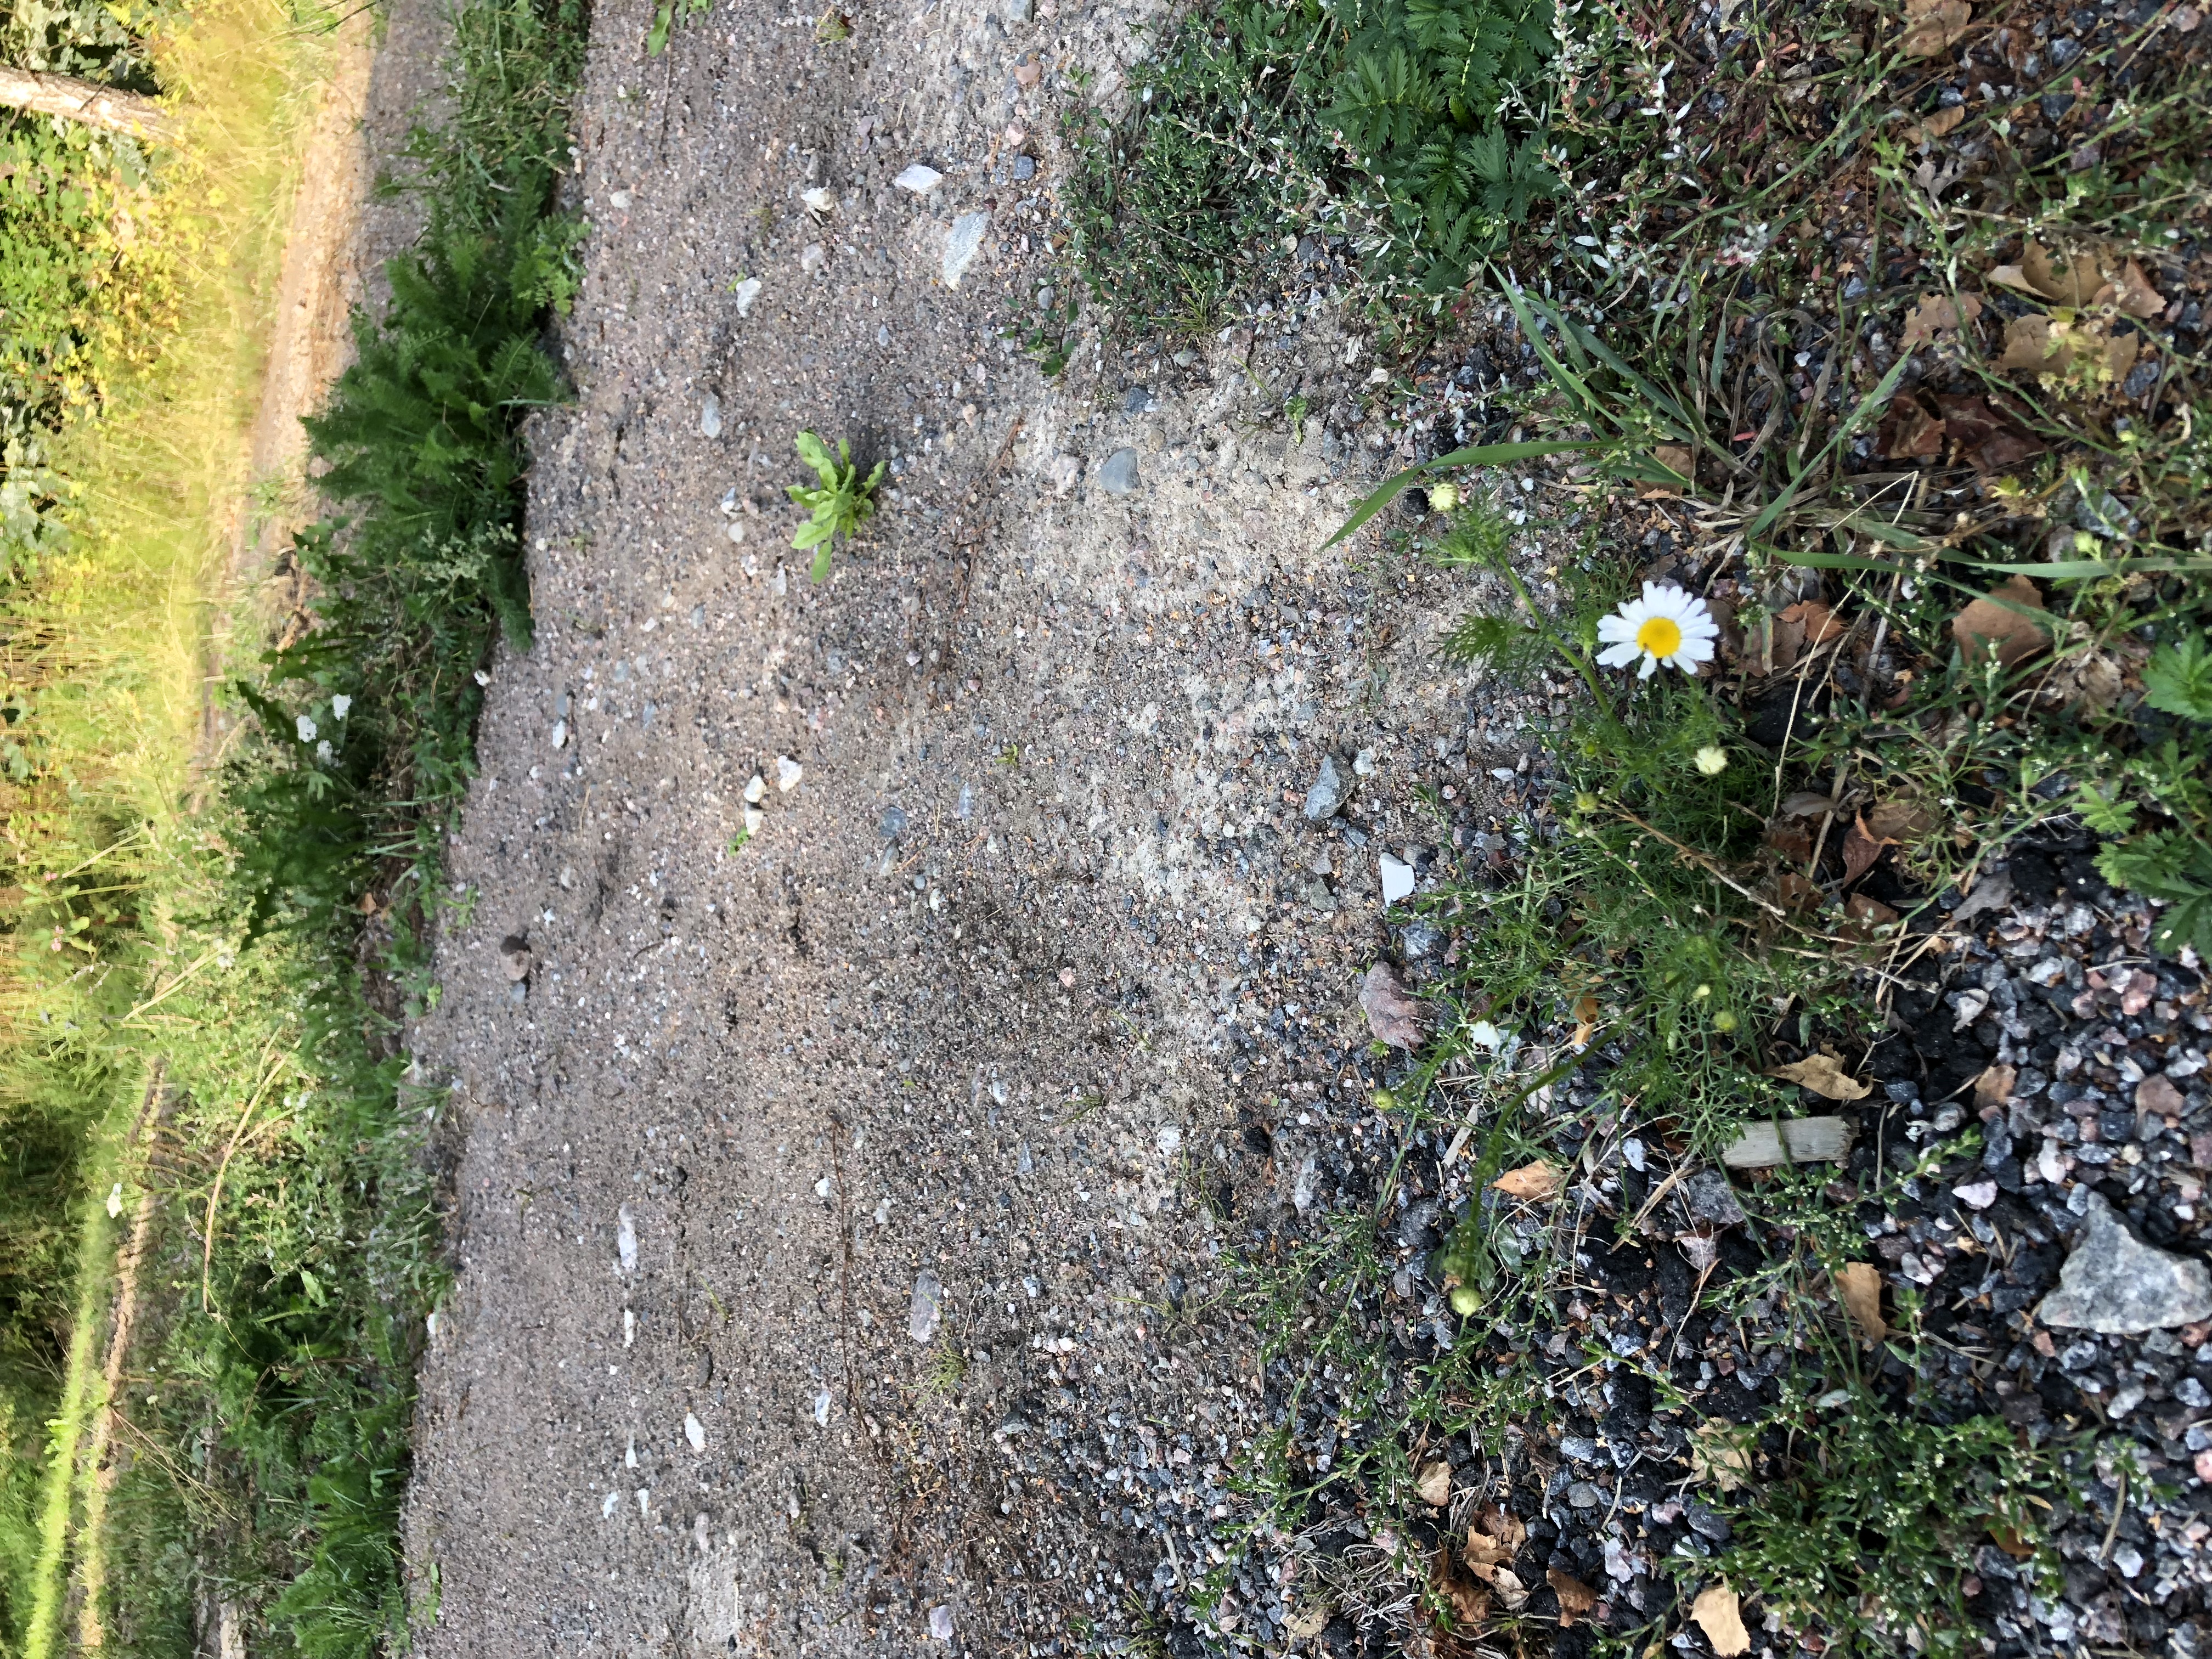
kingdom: Plantae
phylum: Tracheophyta
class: Magnoliopsida
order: Asterales
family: Asteraceae
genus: Tripleurospermum
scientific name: Tripleurospermum inodorum
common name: Scentless mayweed
